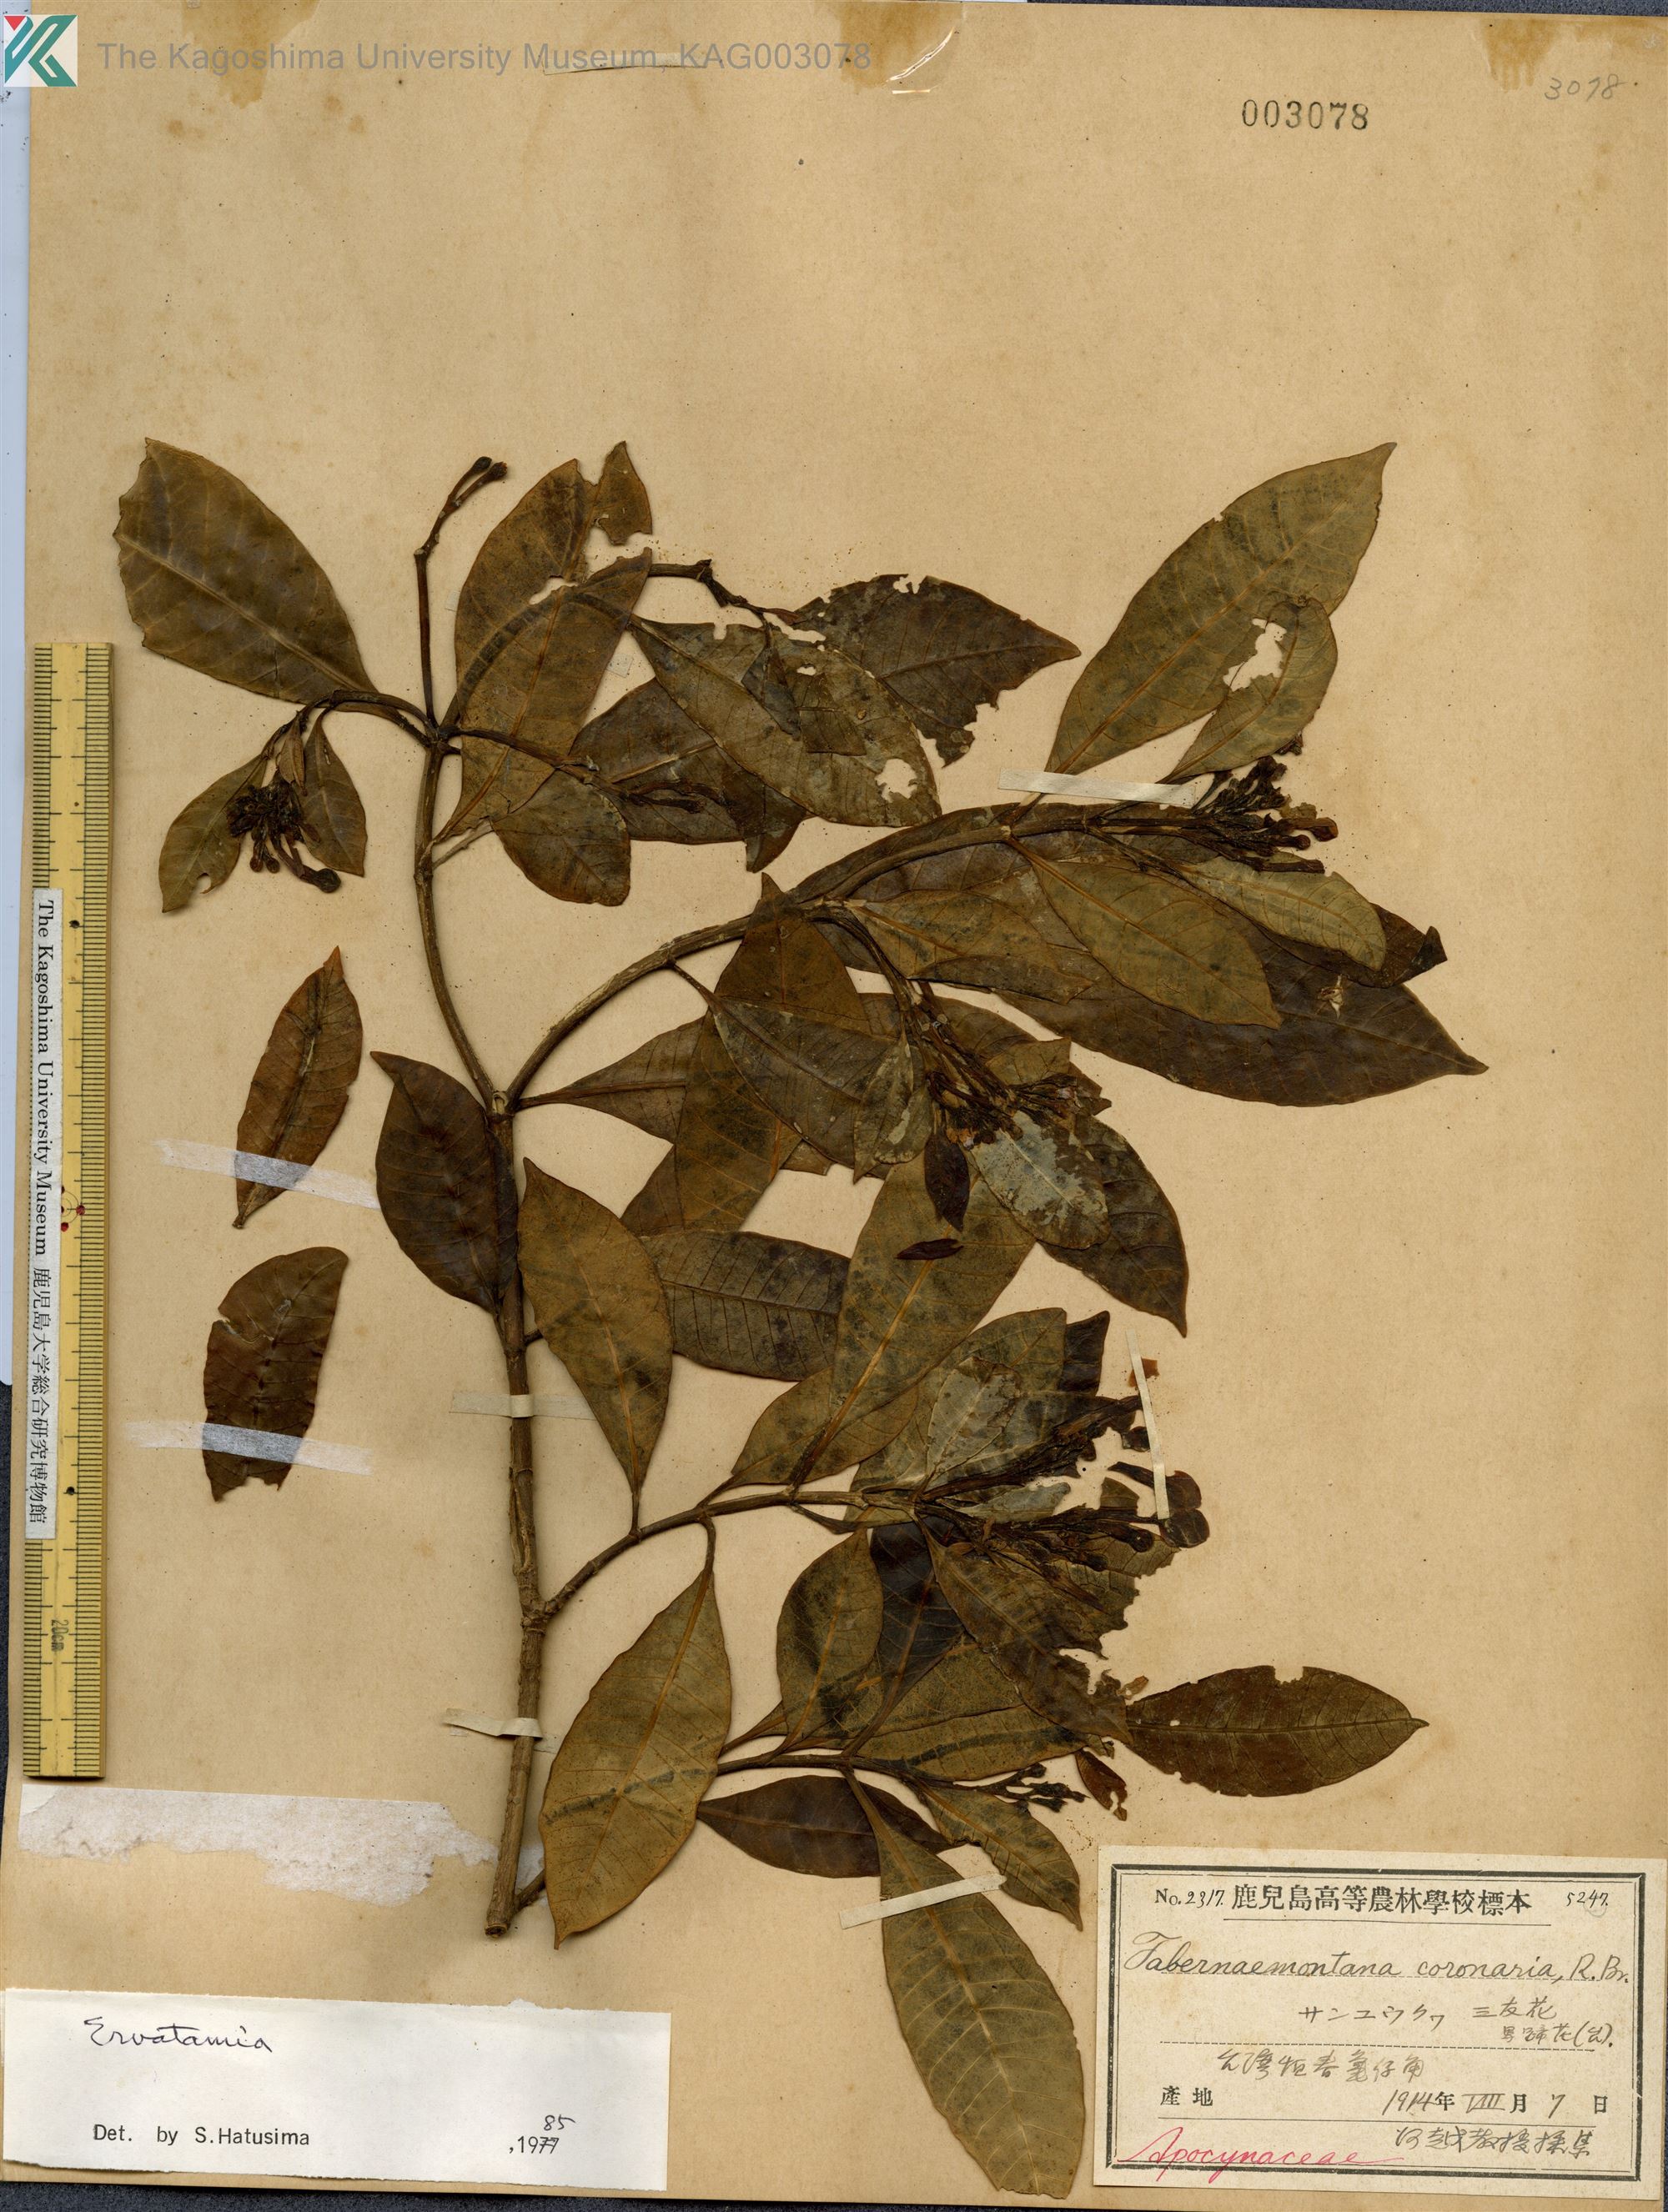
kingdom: Plantae
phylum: Tracheophyta
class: Magnoliopsida
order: Gentianales
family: Apocynaceae
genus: Tabernaemontana
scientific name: Tabernaemontana
